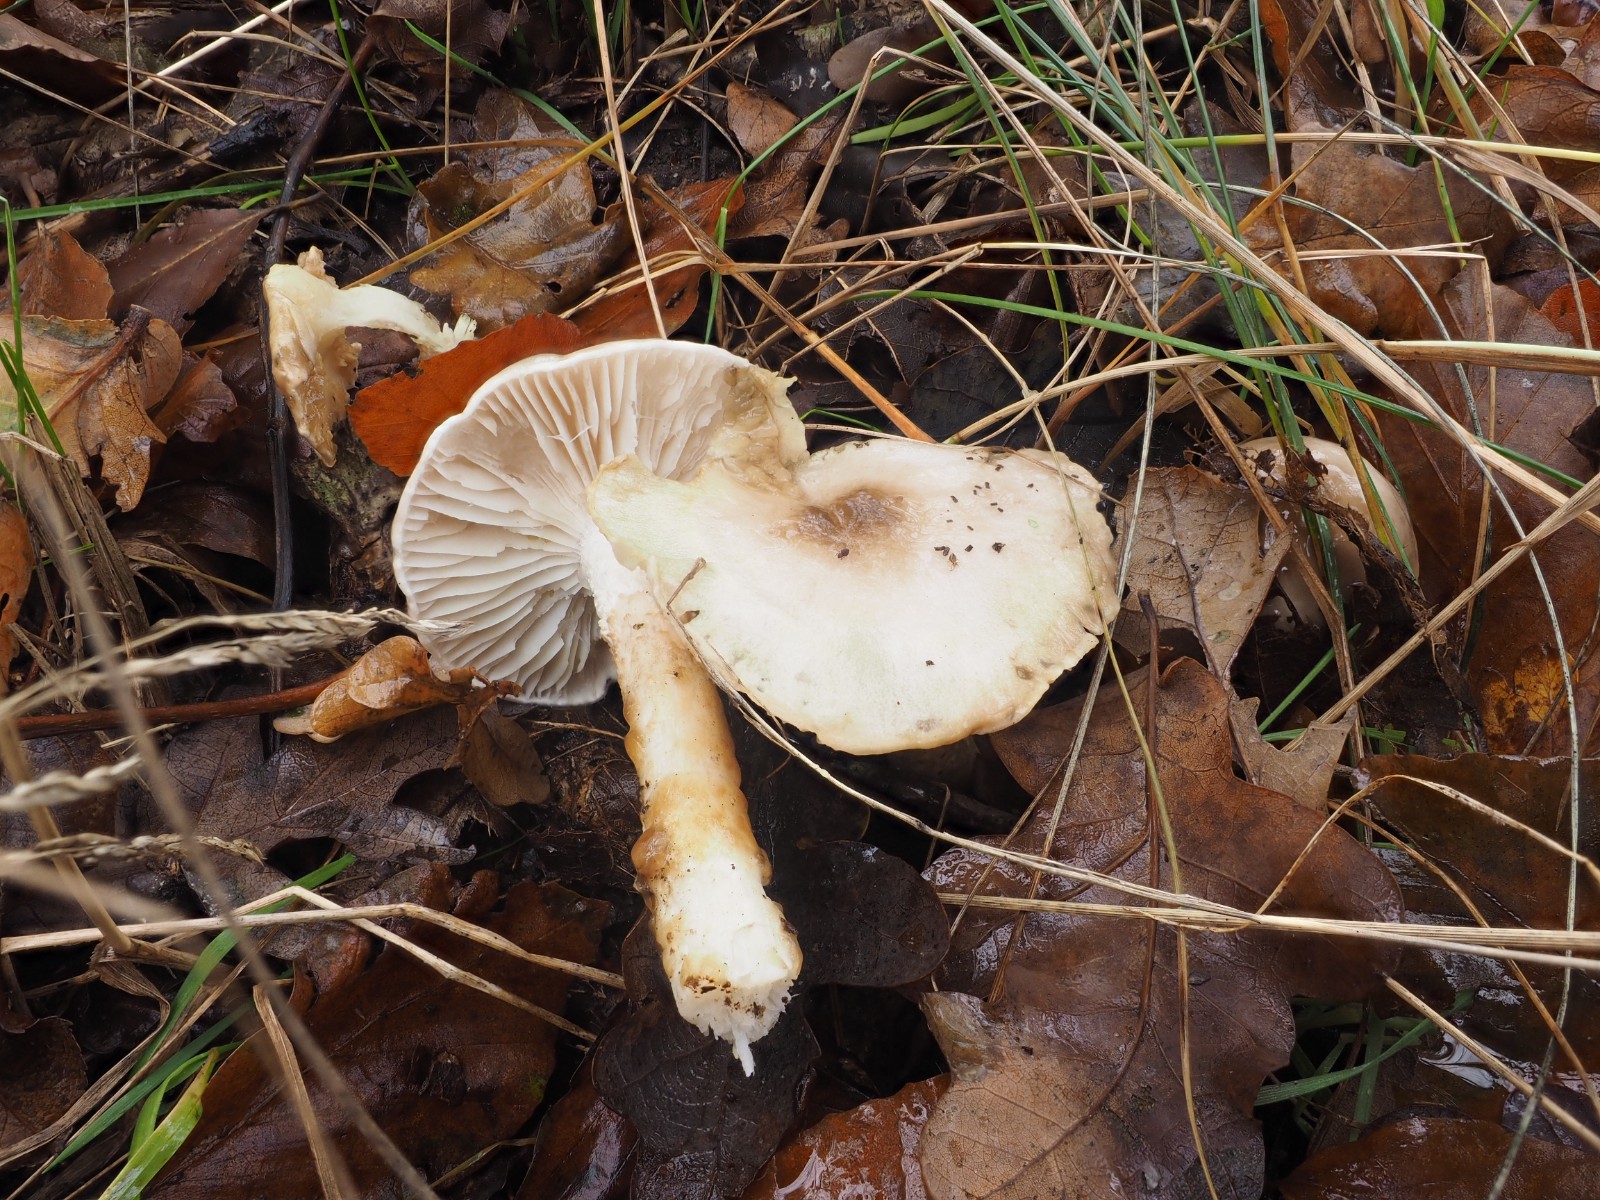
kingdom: Fungi
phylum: Basidiomycota
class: Agaricomycetes
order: Agaricales
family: Hygrophoraceae
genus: Hygrophorus
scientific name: Hygrophorus glutinifer
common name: tvefarvet sneglehat
